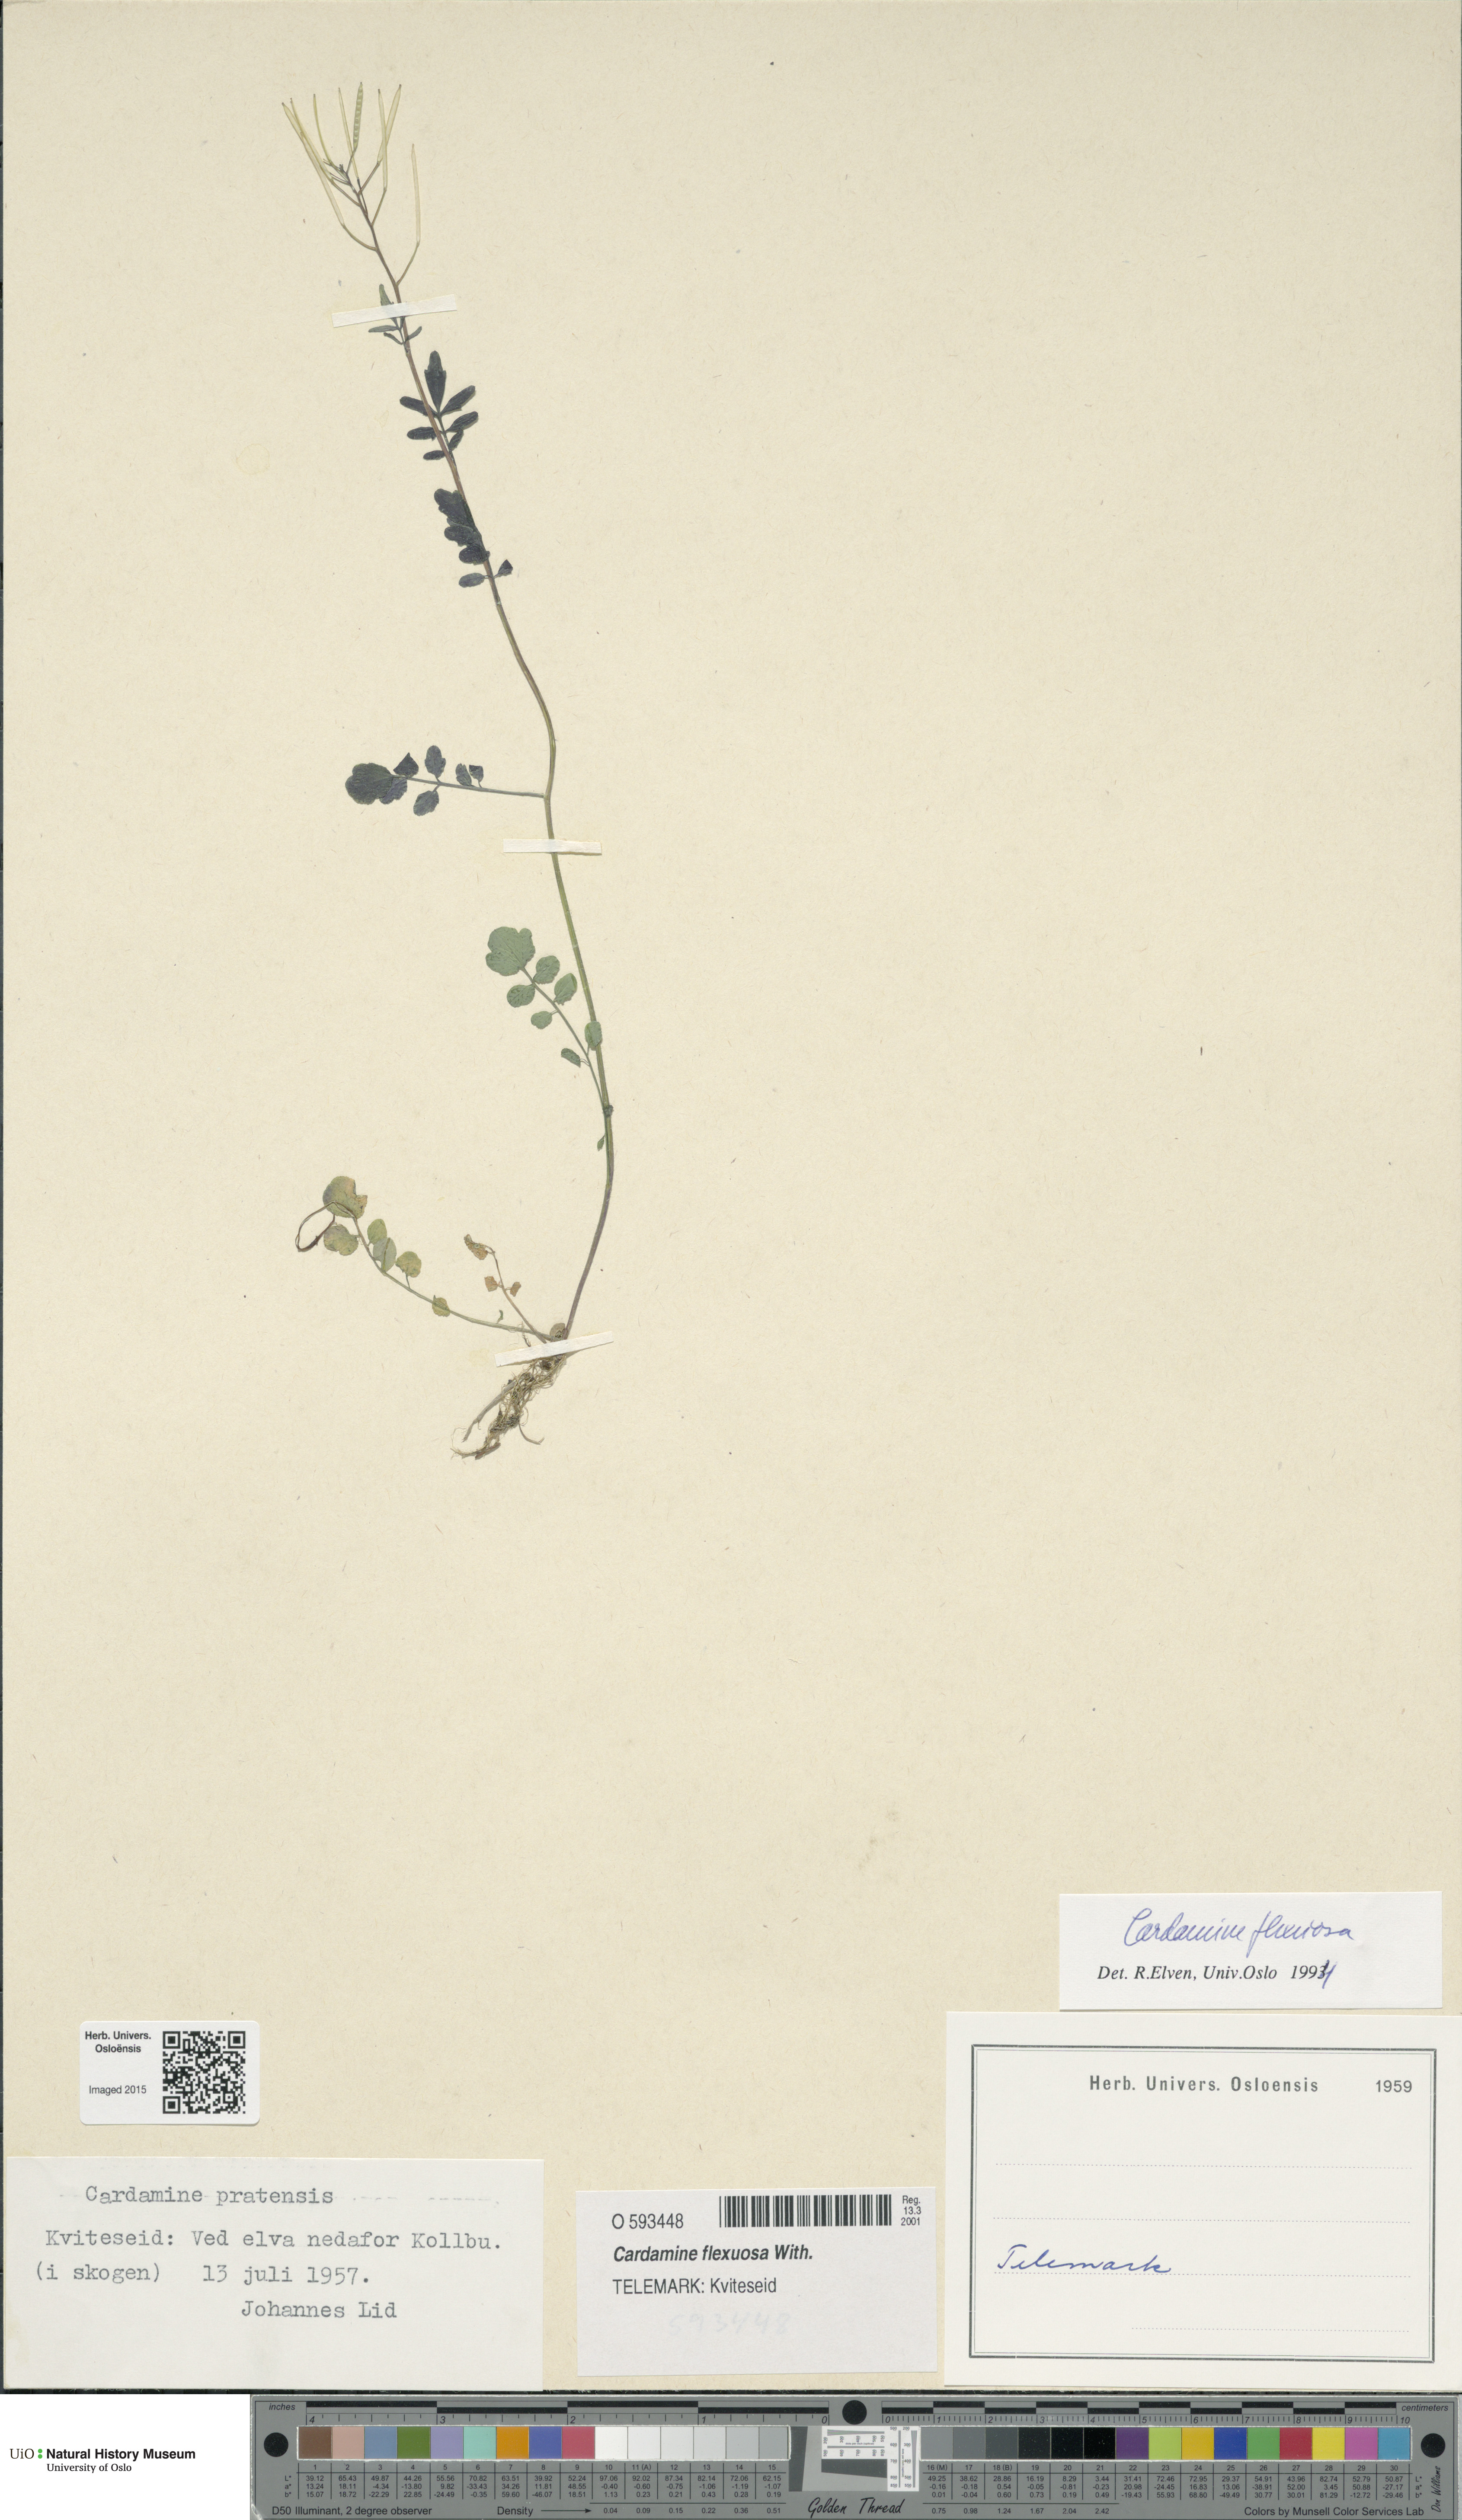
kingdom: Plantae
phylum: Tracheophyta
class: Magnoliopsida
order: Brassicales
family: Brassicaceae
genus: Cardamine
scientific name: Cardamine flexuosa
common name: Woodland bittercress
